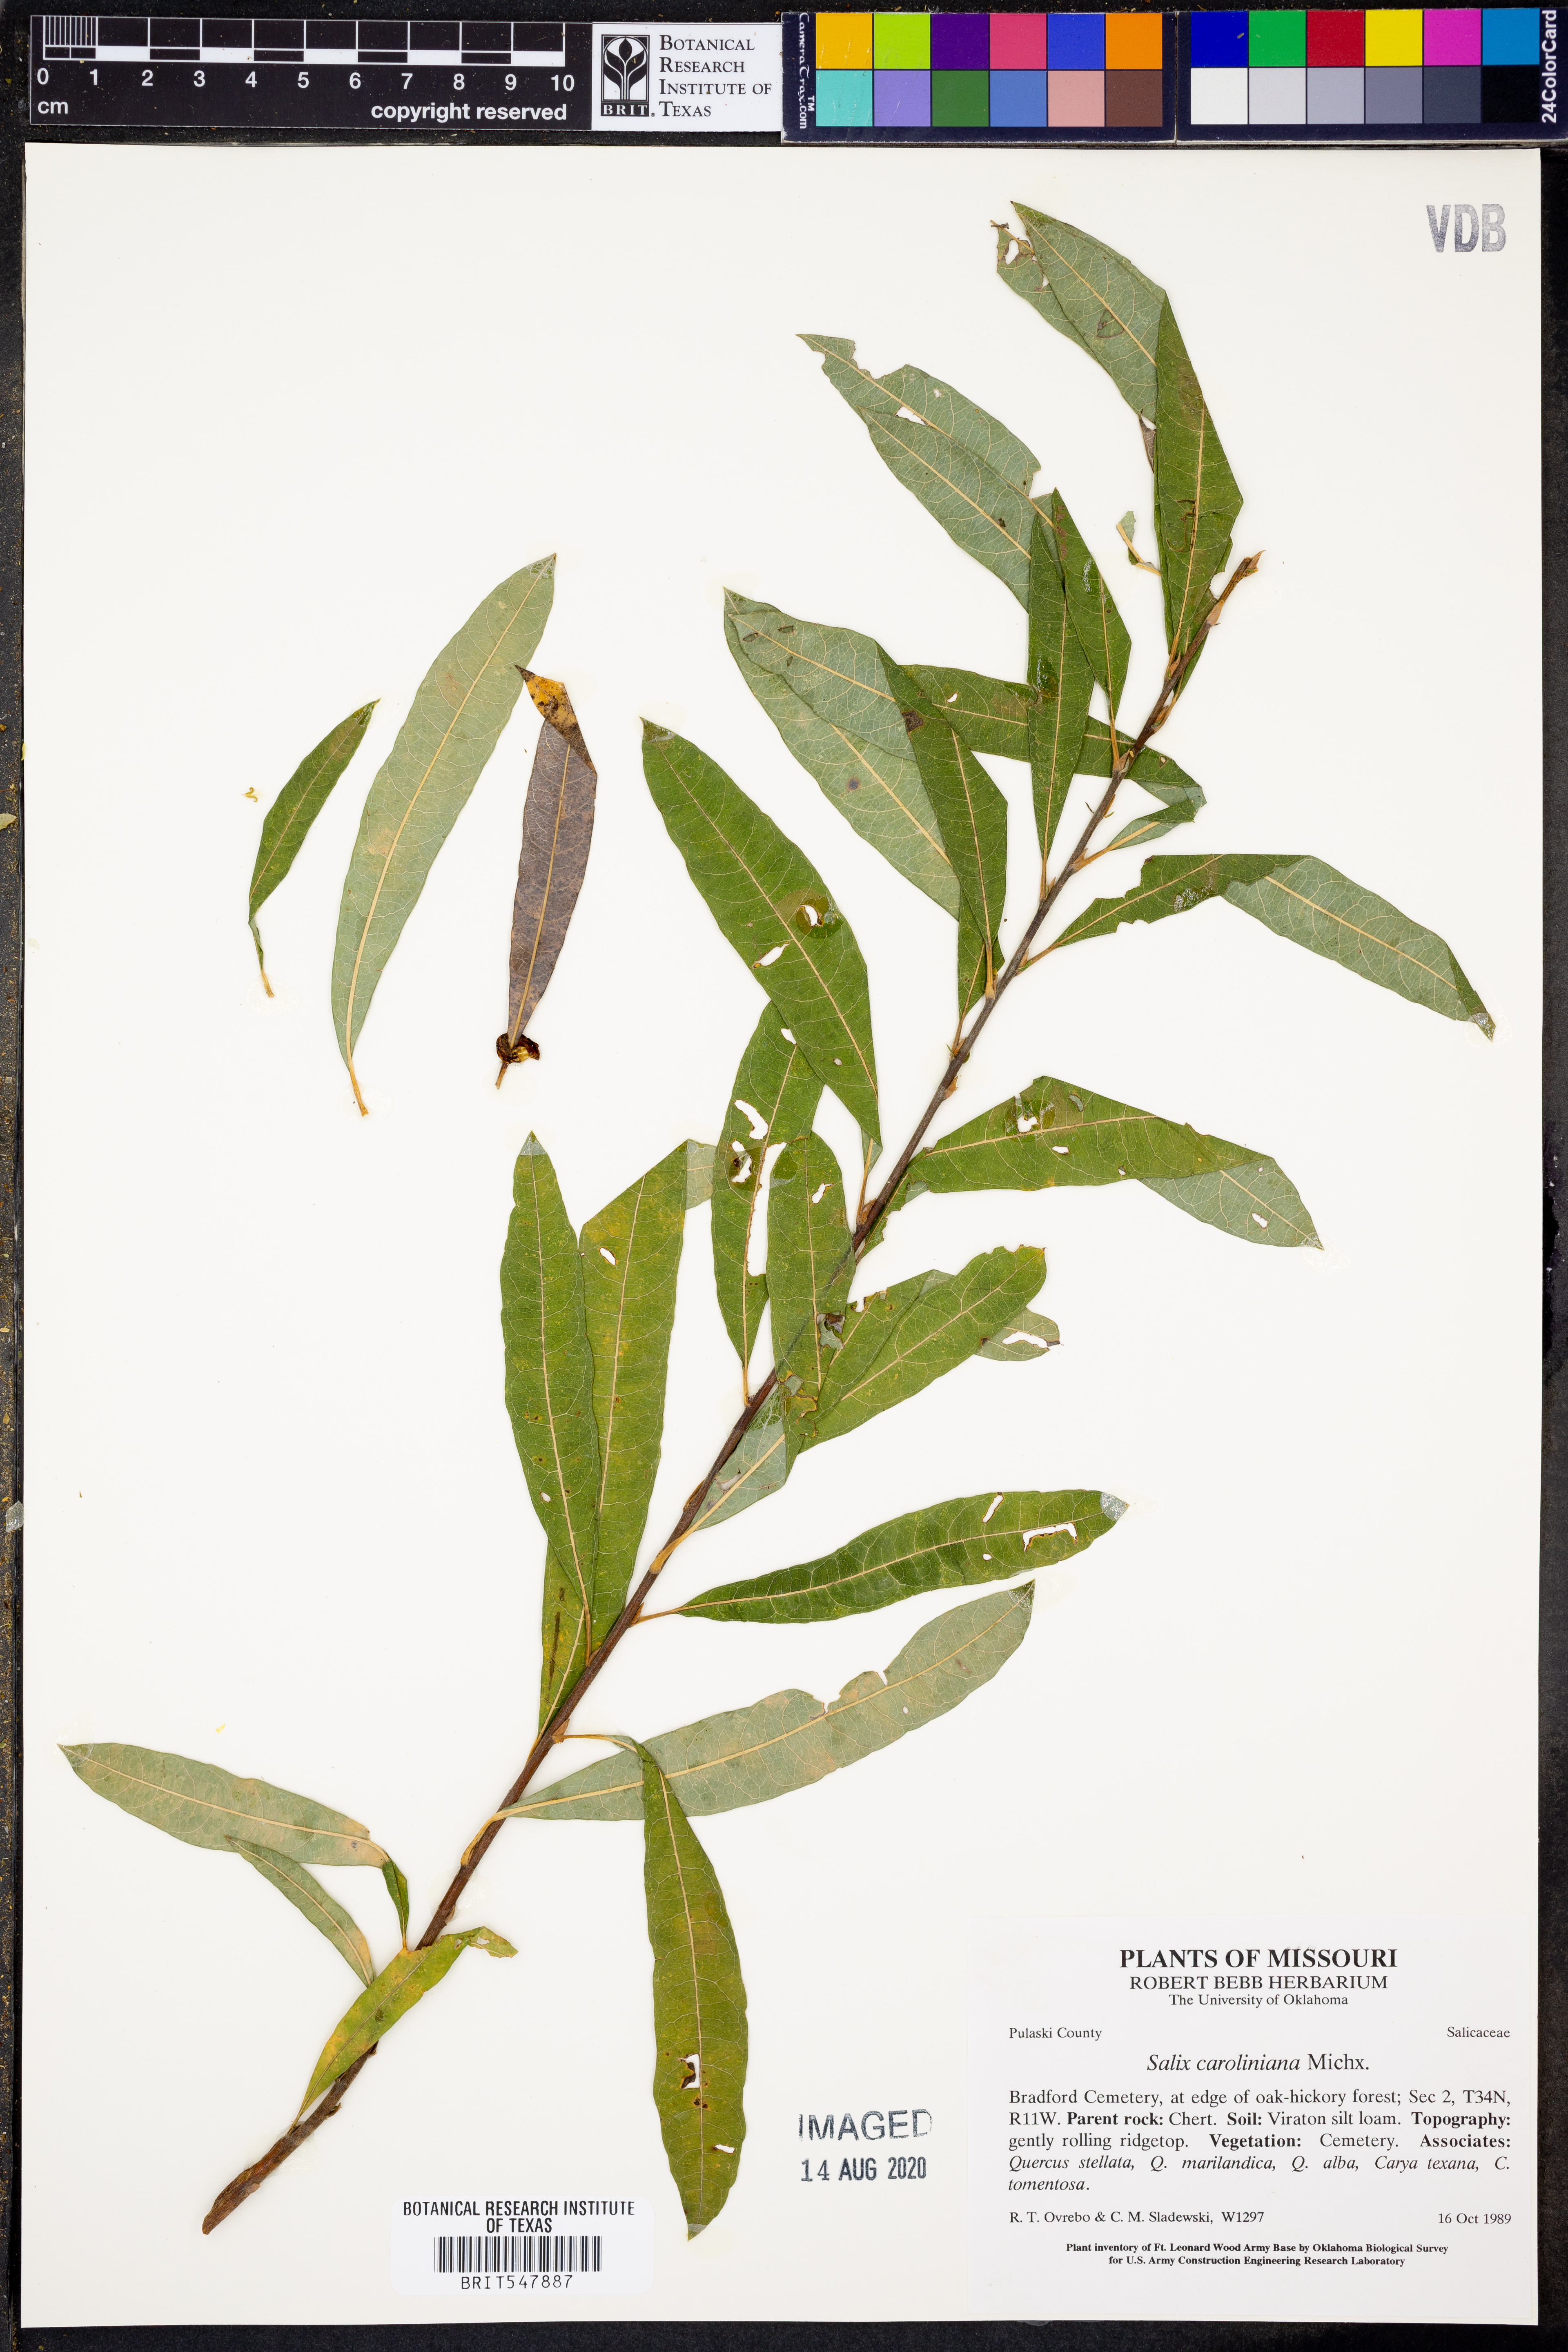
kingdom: Plantae
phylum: Tracheophyta
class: Magnoliopsida
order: Malpighiales
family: Salicaceae
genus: Salix
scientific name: Salix caroliniana
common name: Carolina willow
